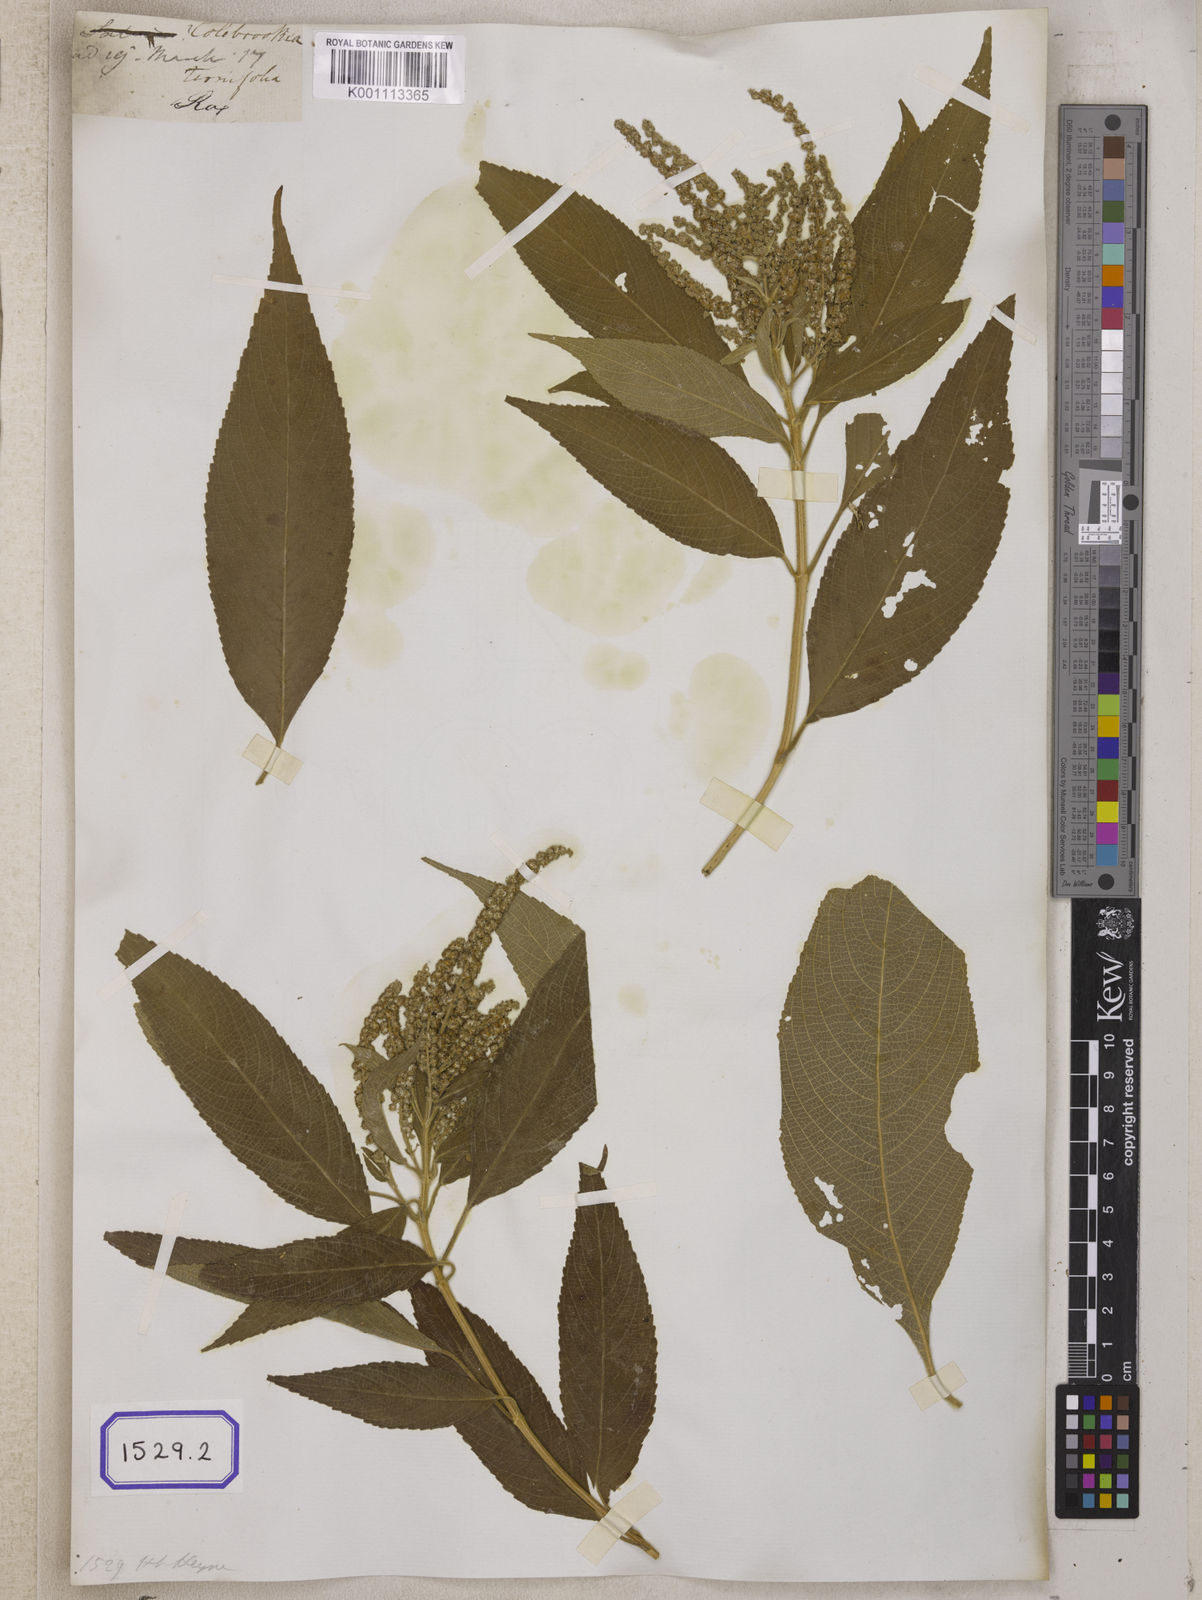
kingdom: Plantae
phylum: Tracheophyta
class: Magnoliopsida
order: Lamiales
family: Lamiaceae
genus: Colebrookea
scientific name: Colebrookea oppositifolia
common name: Indian squirrel tail
